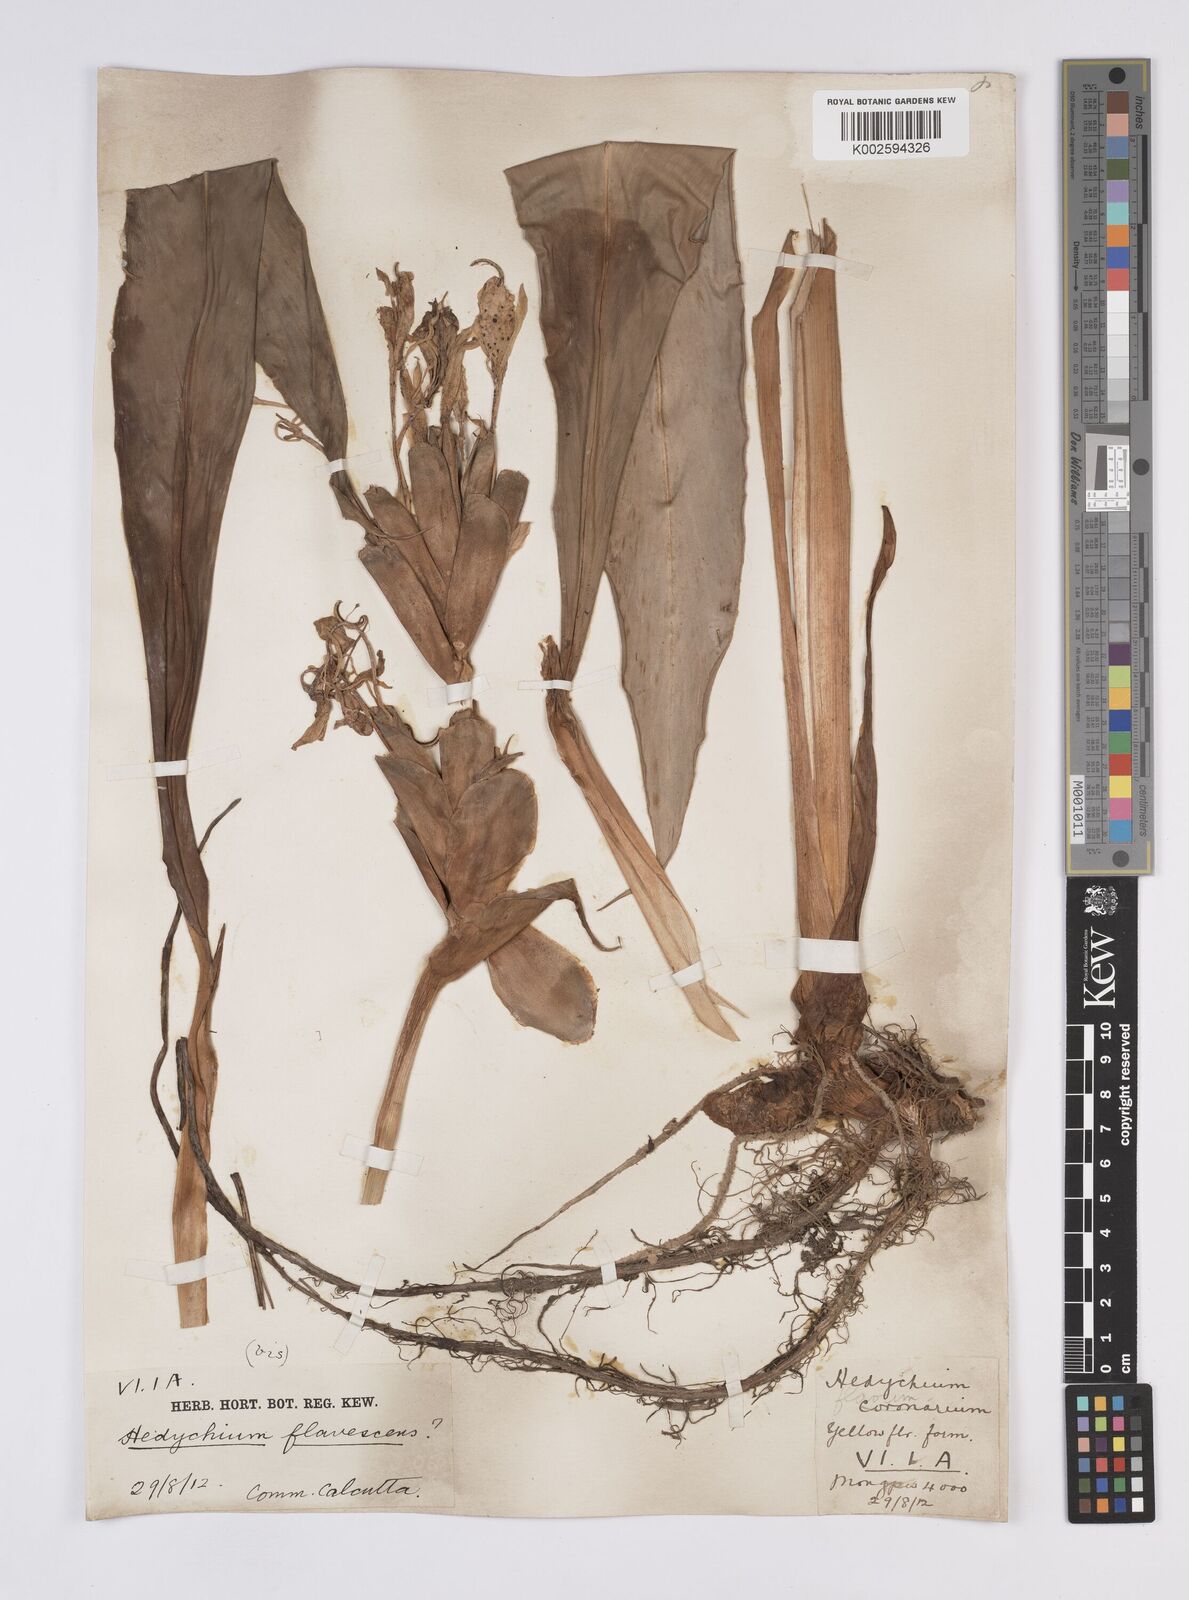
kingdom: Plantae
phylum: Tracheophyta
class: Liliopsida
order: Zingiberales
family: Zingiberaceae
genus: Hedychium
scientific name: Hedychium flavescens
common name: Yellow ginger
